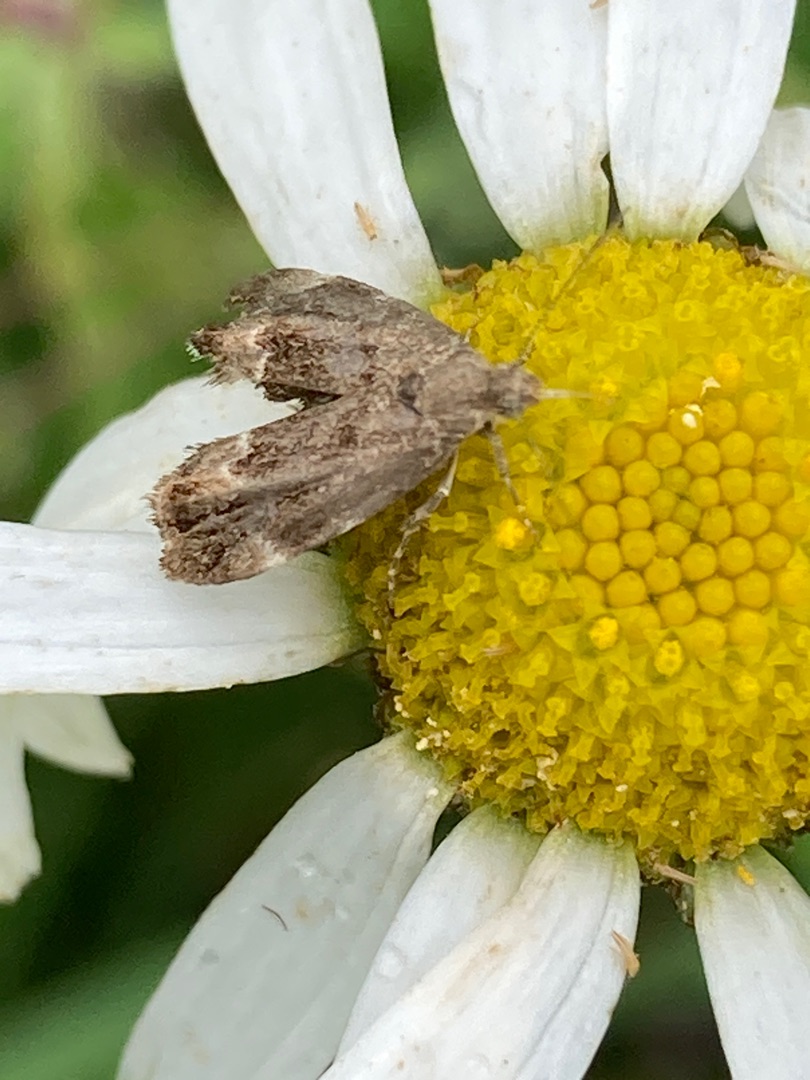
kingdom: Animalia
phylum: Arthropoda
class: Insecta
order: Lepidoptera
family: Choreutidae
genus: Anthophila
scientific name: Anthophila fabriciana
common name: Bredvinget nældevikler
